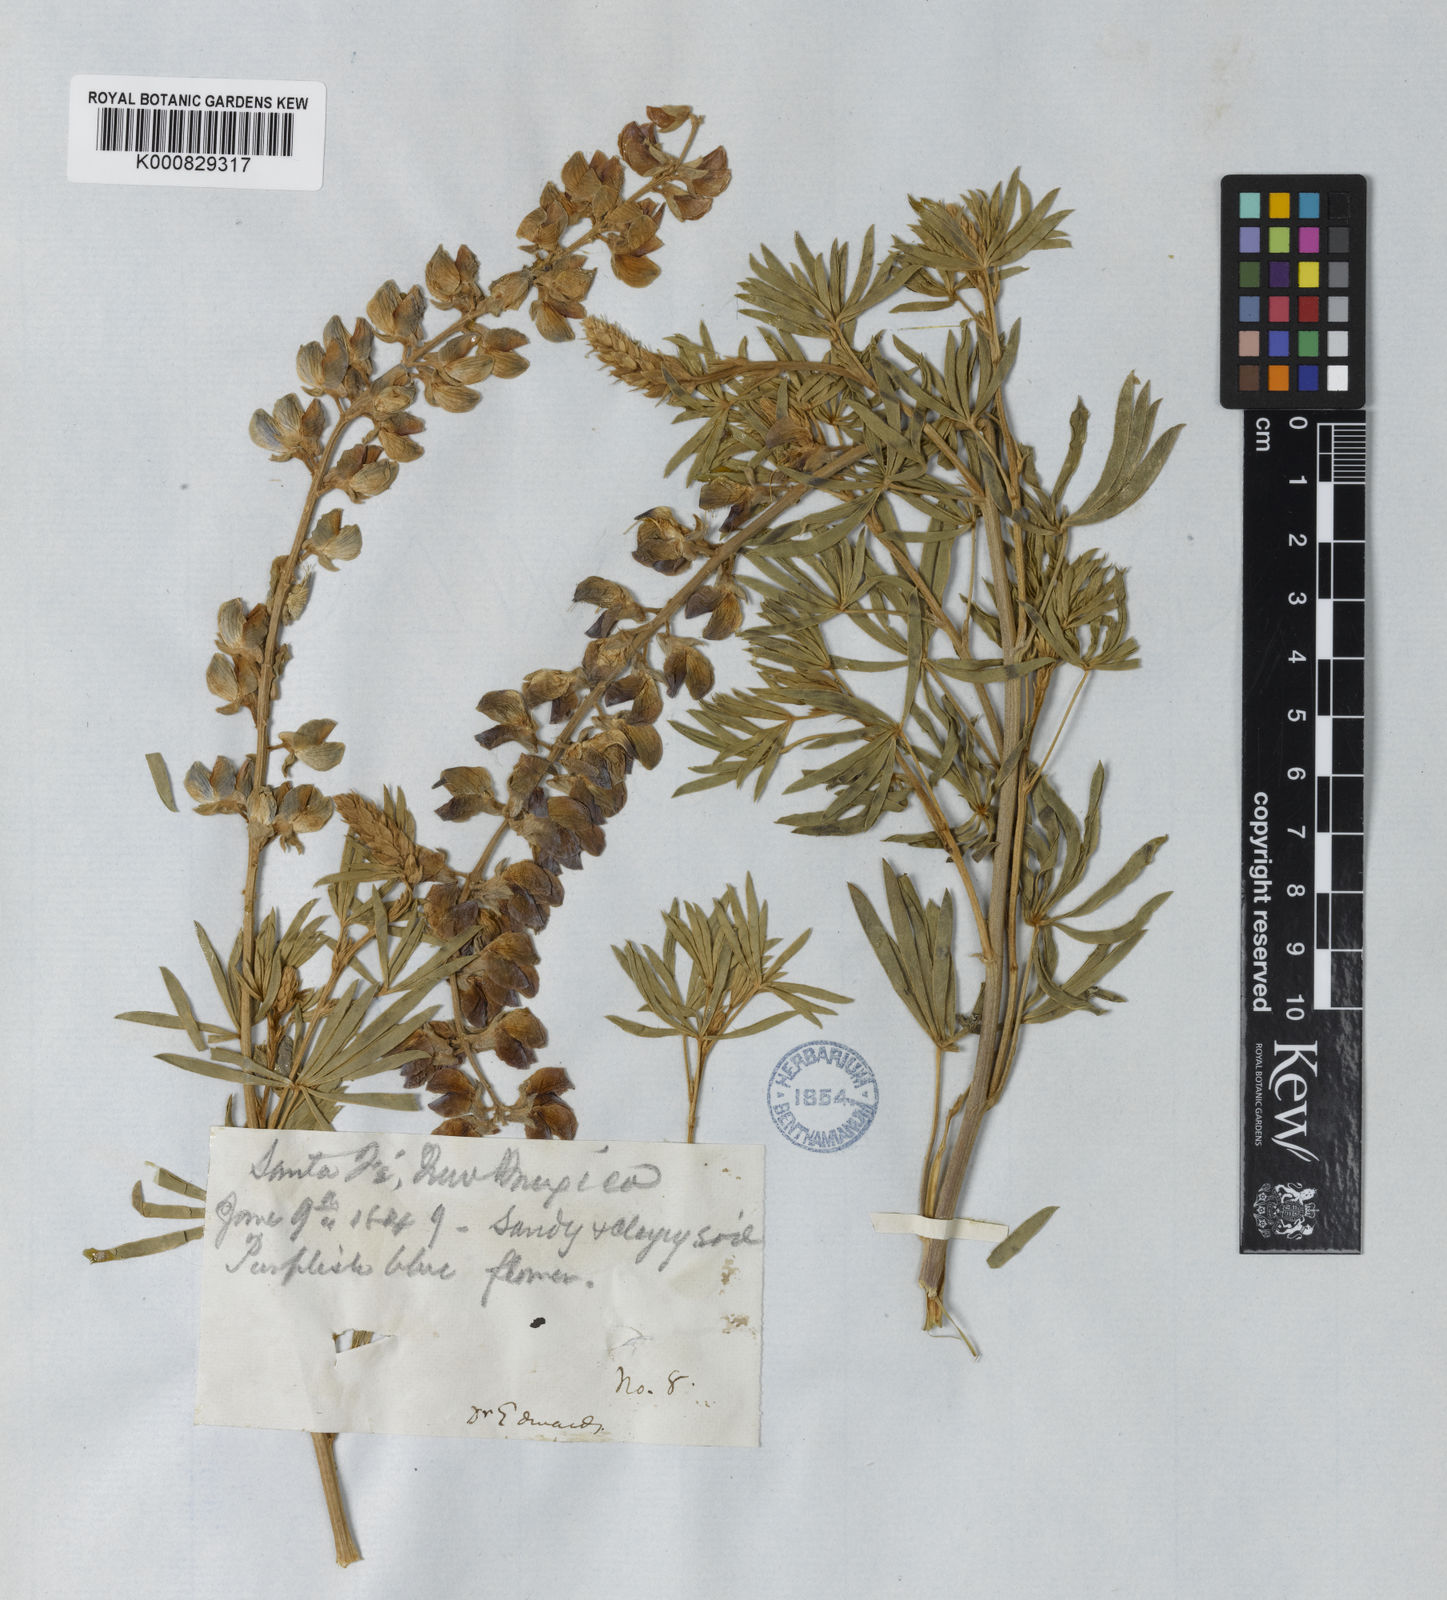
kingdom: Plantae
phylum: Tracheophyta
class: Magnoliopsida
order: Fabales
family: Fabaceae
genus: Lupinus
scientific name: Lupinus
